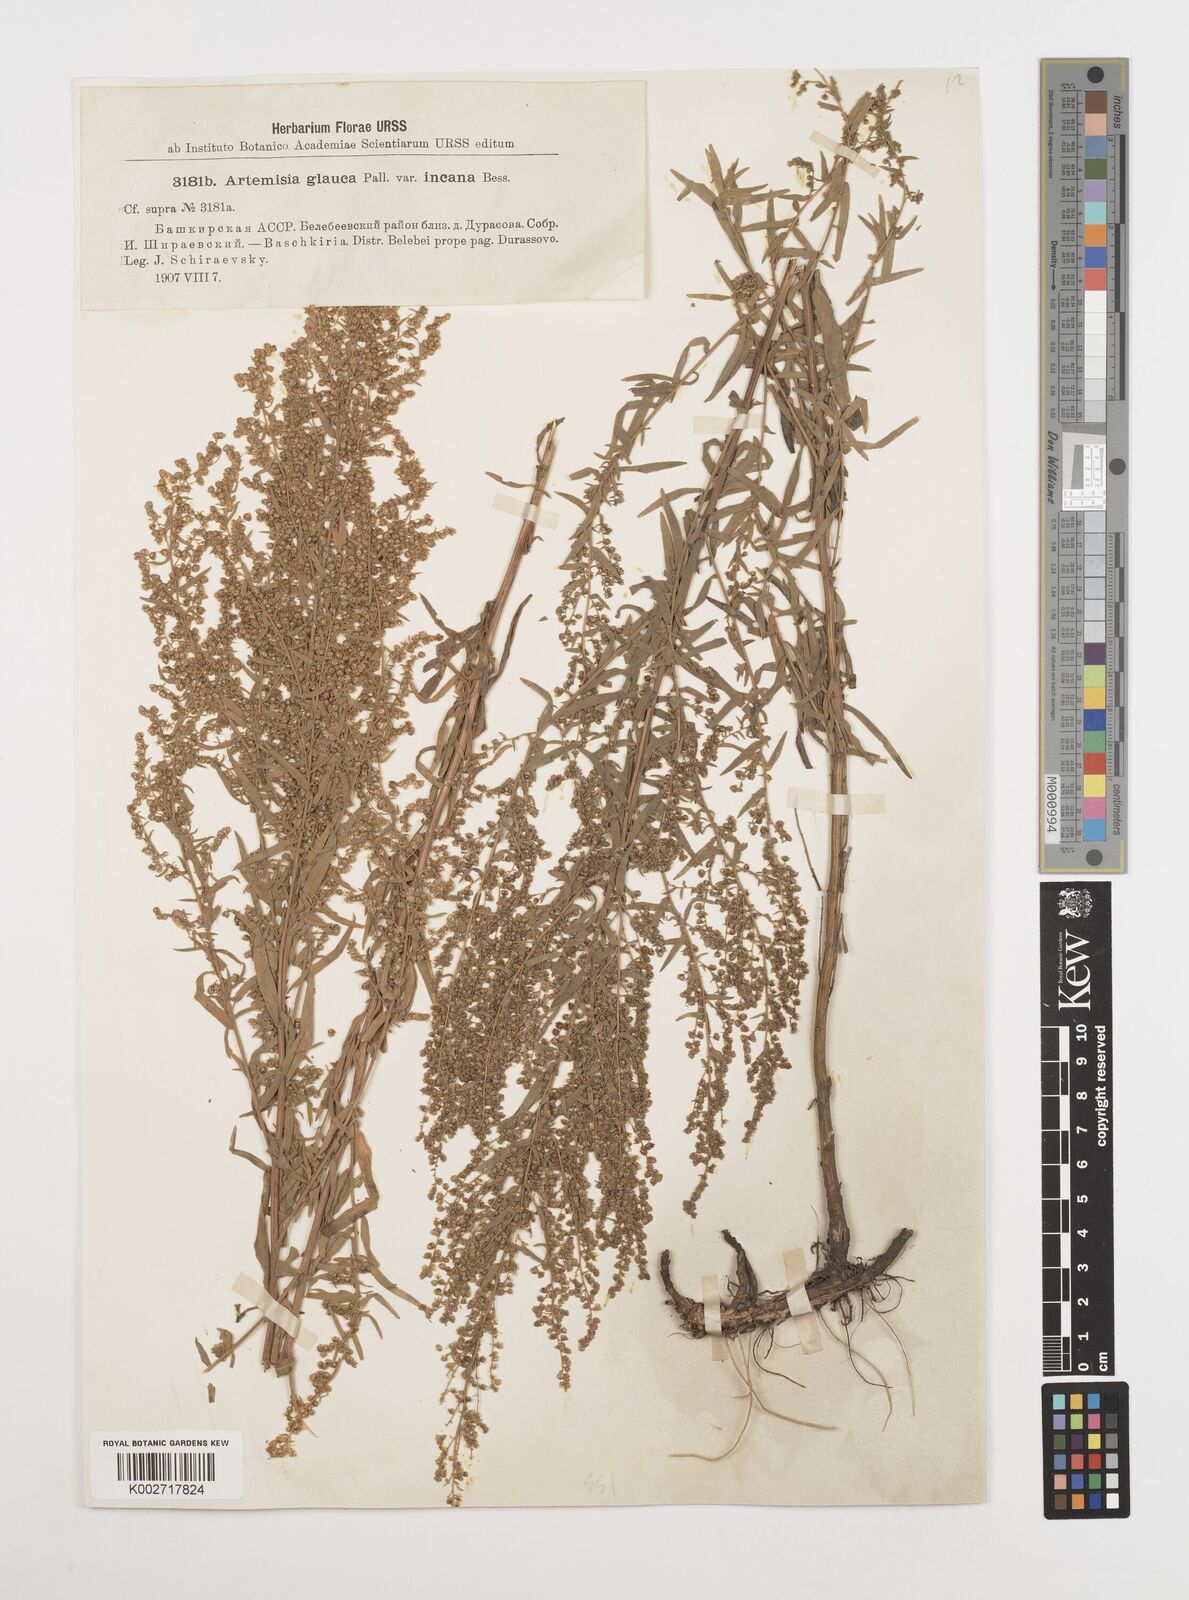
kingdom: Plantae
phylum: Tracheophyta
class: Magnoliopsida
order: Asterales
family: Asteraceae
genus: Artemisia
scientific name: Artemisia glauca
